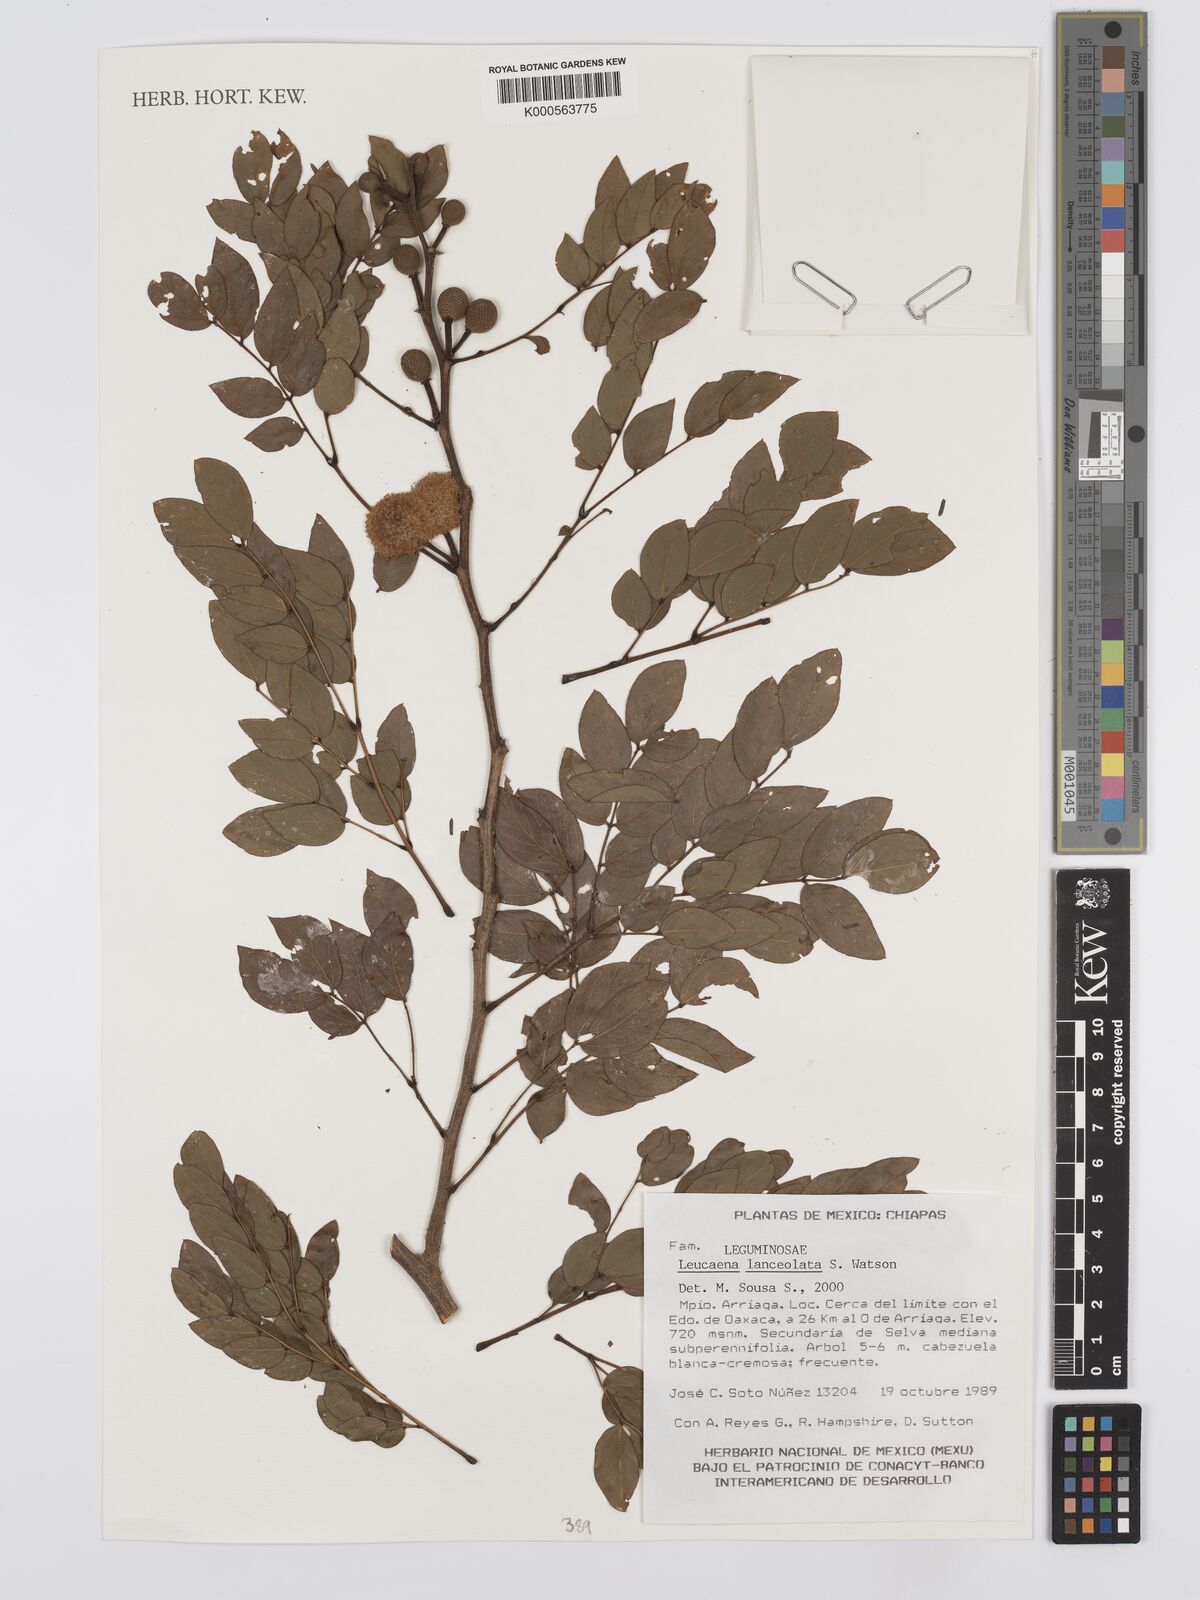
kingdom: Plantae
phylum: Tracheophyta
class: Magnoliopsida
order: Fabales
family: Fabaceae
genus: Leucaena
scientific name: Leucaena lanceolata
